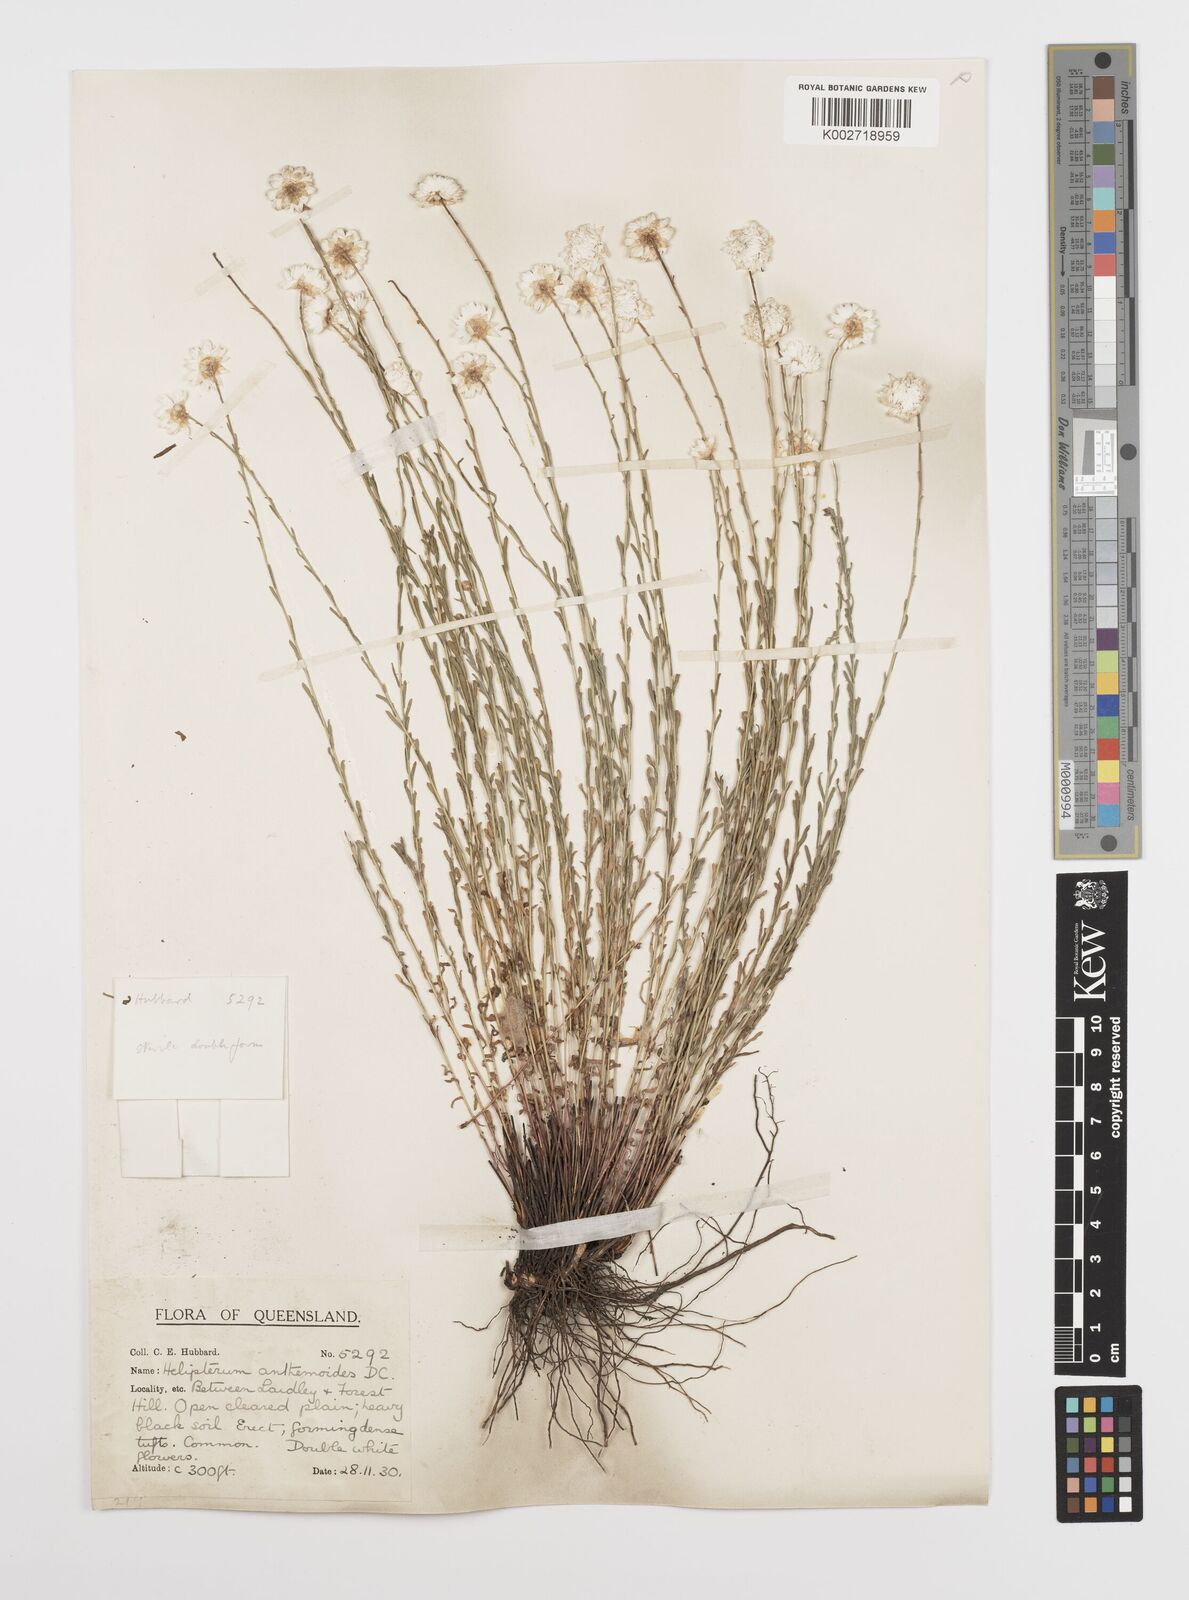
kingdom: Plantae
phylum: Tracheophyta
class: Magnoliopsida
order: Asterales
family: Asteraceae
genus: Rhodanthe
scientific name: Rhodanthe anthemoides
